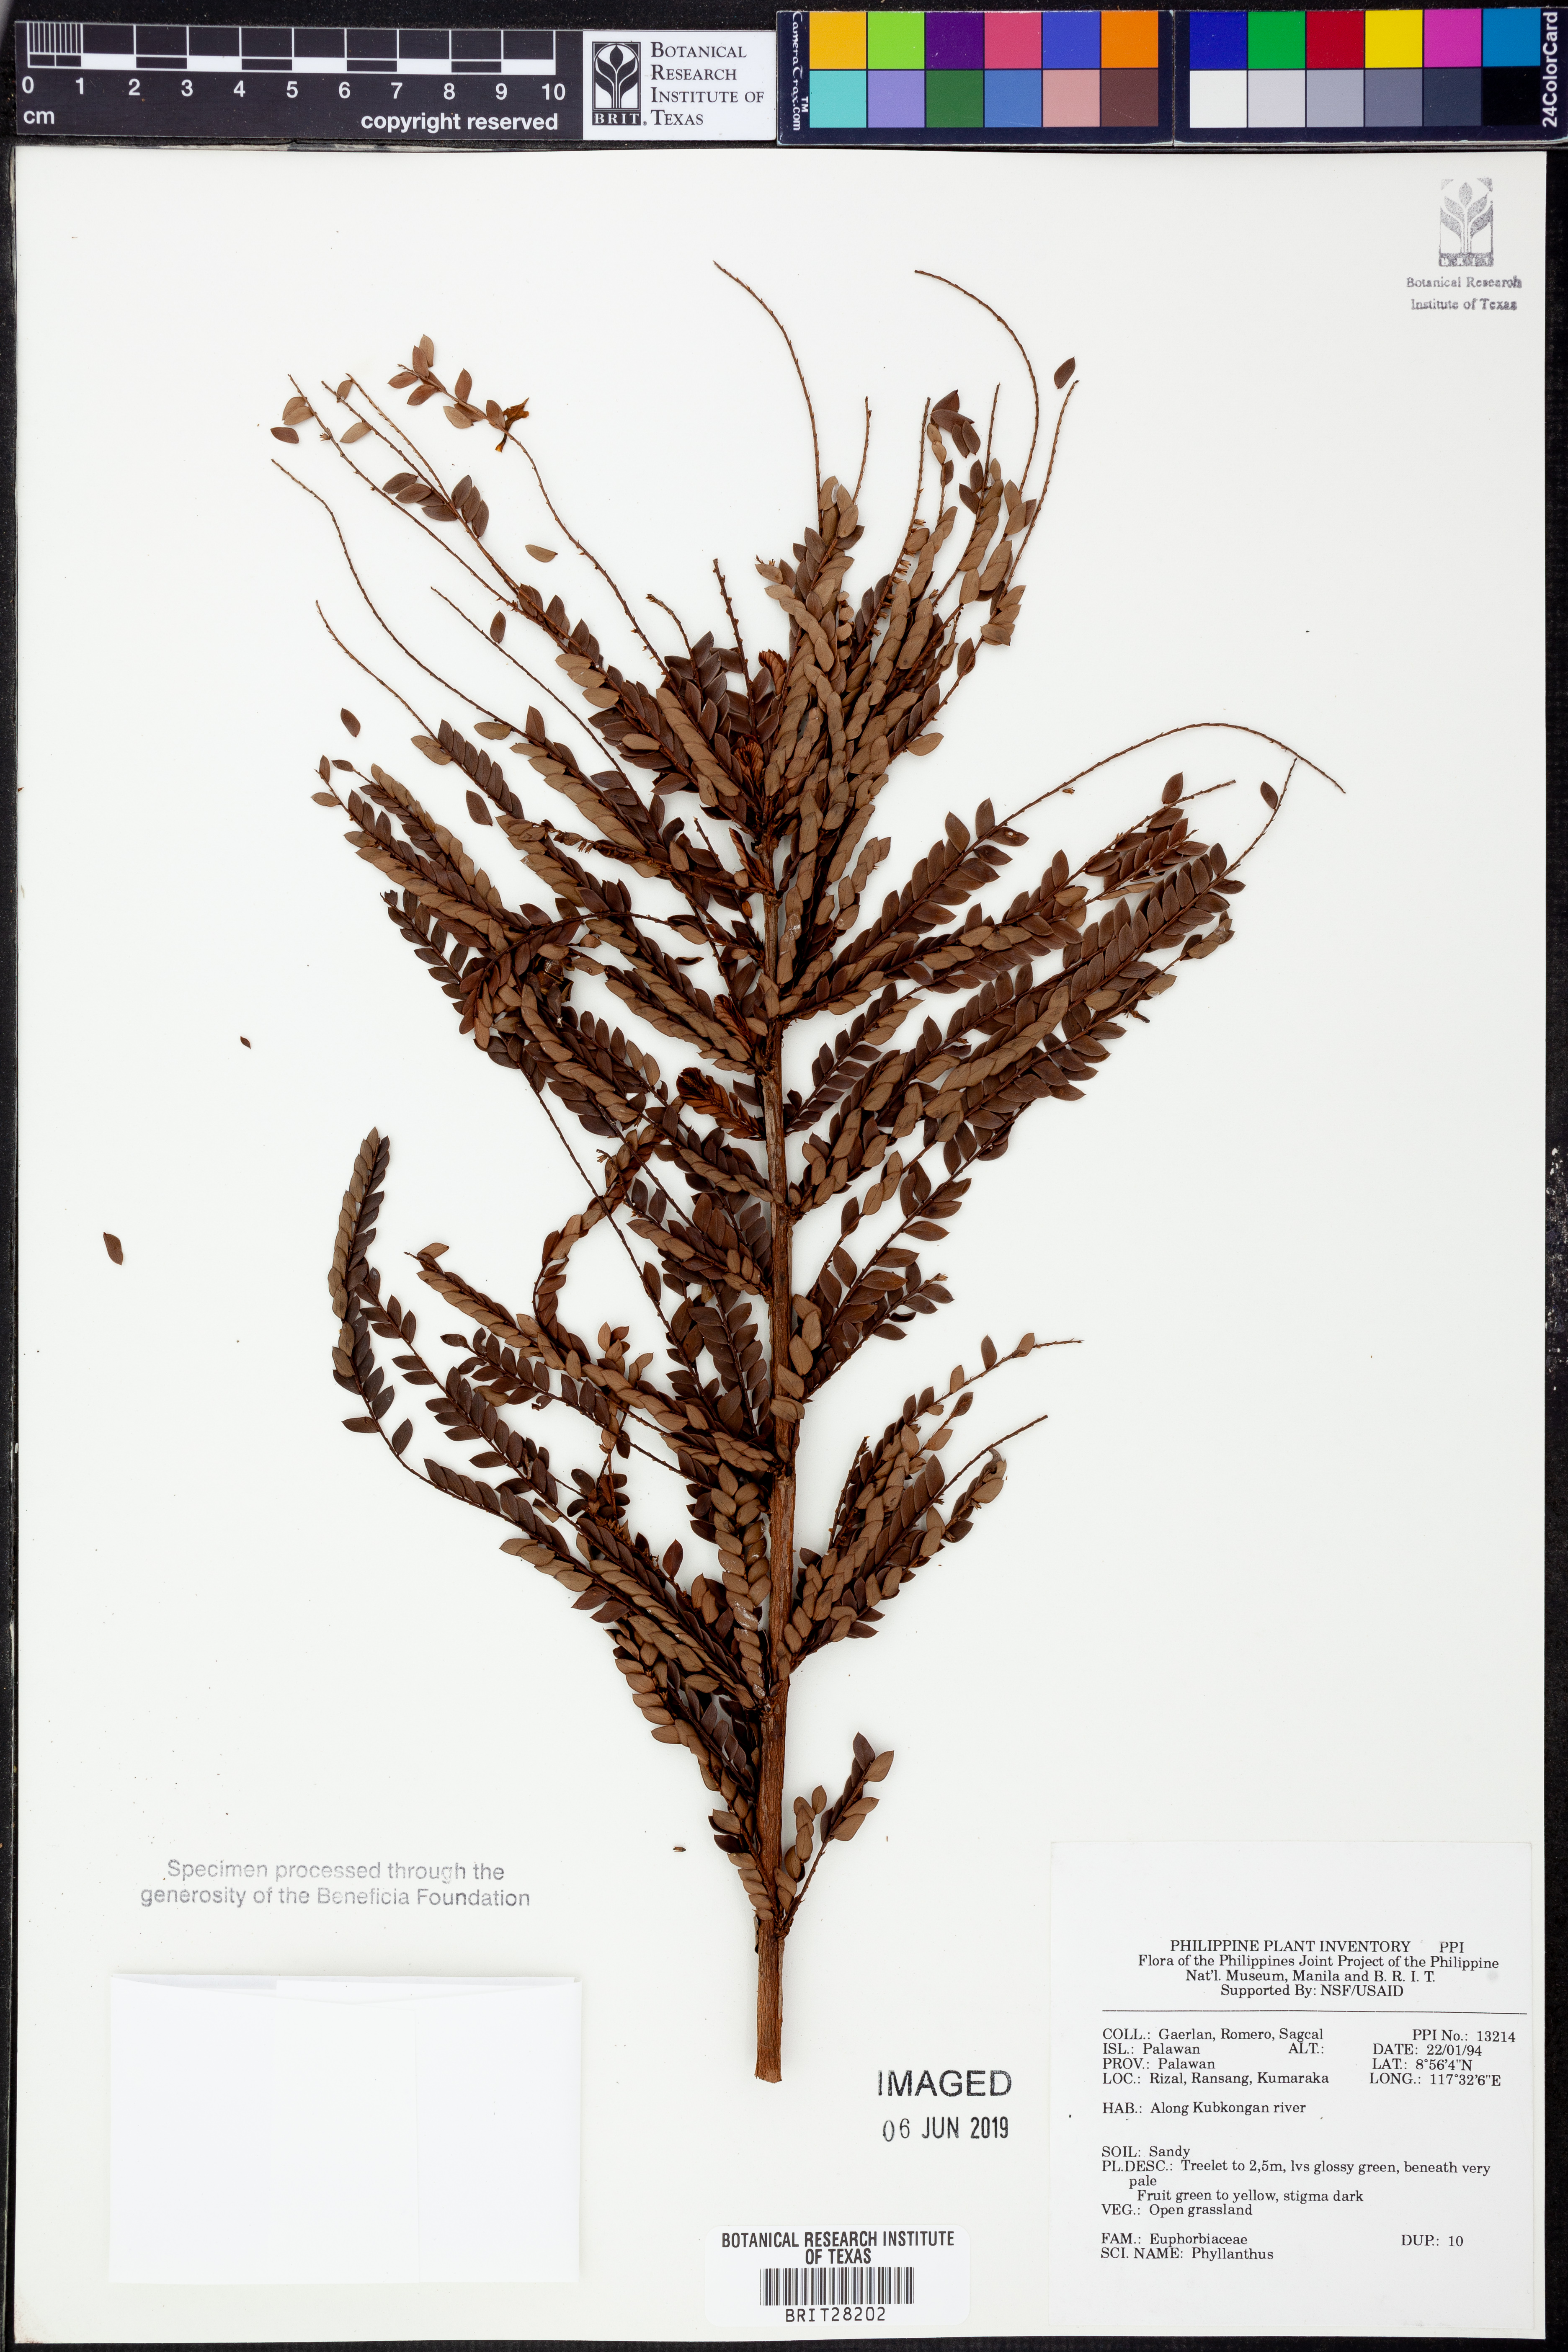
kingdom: Plantae
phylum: Tracheophyta
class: Magnoliopsida
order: Malpighiales
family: Phyllanthaceae
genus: Phyllanthus
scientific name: Phyllanthus
